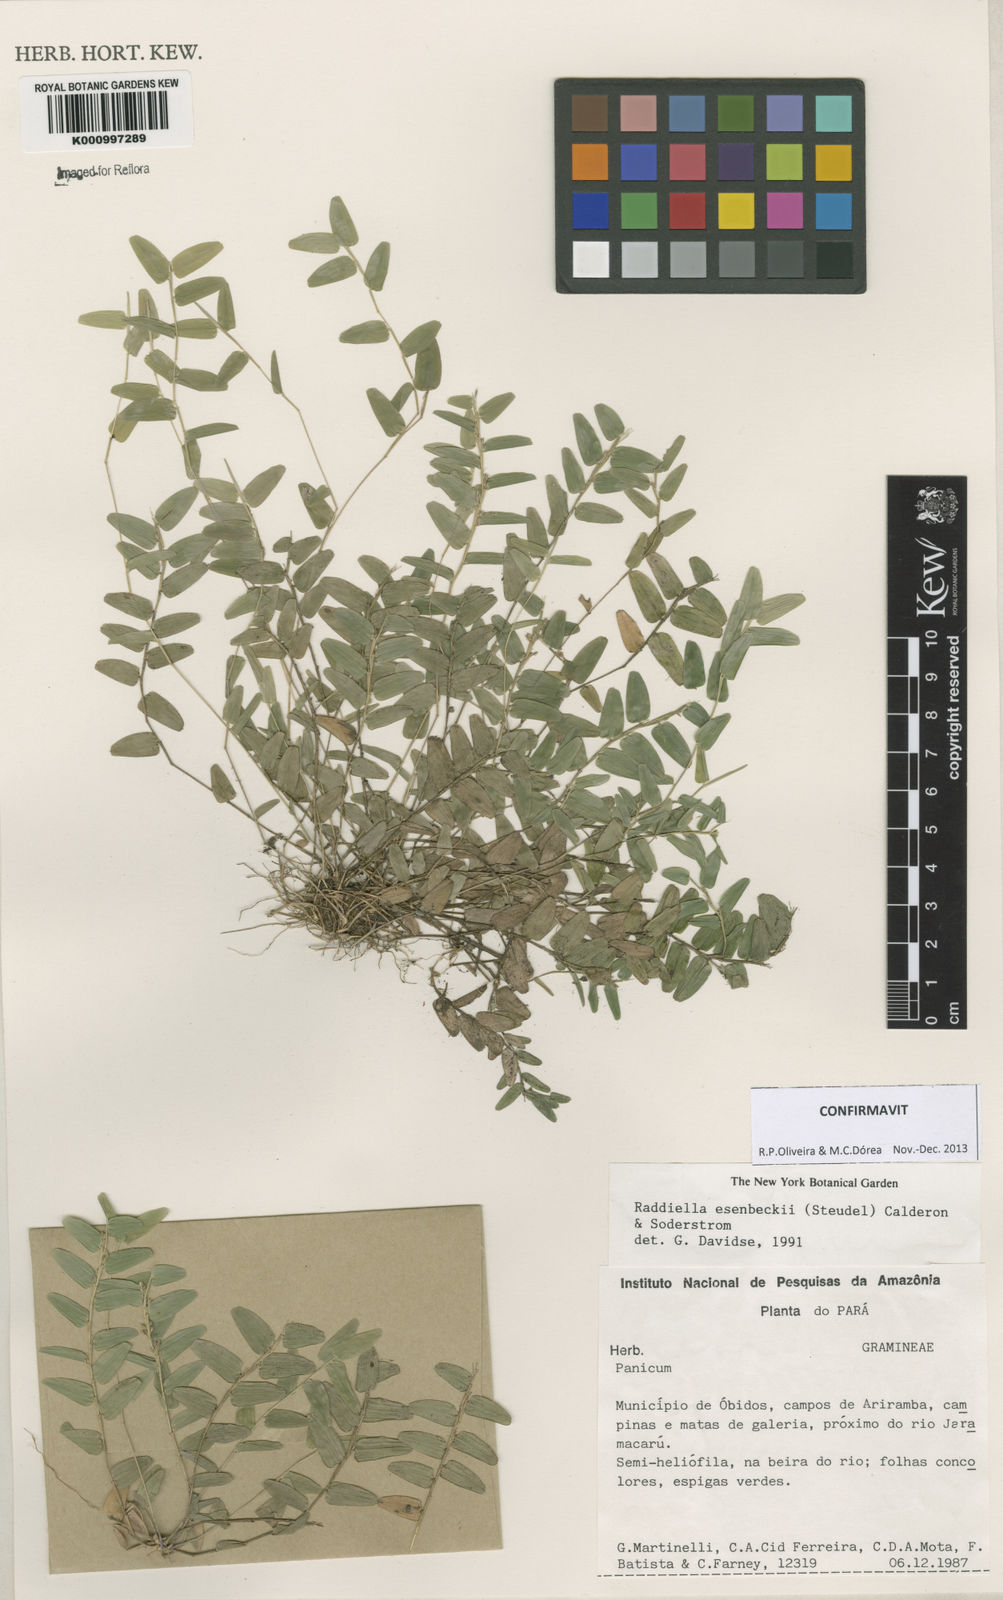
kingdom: Plantae
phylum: Tracheophyta
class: Liliopsida
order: Poales
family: Poaceae
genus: Raddiella
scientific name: Raddiella
